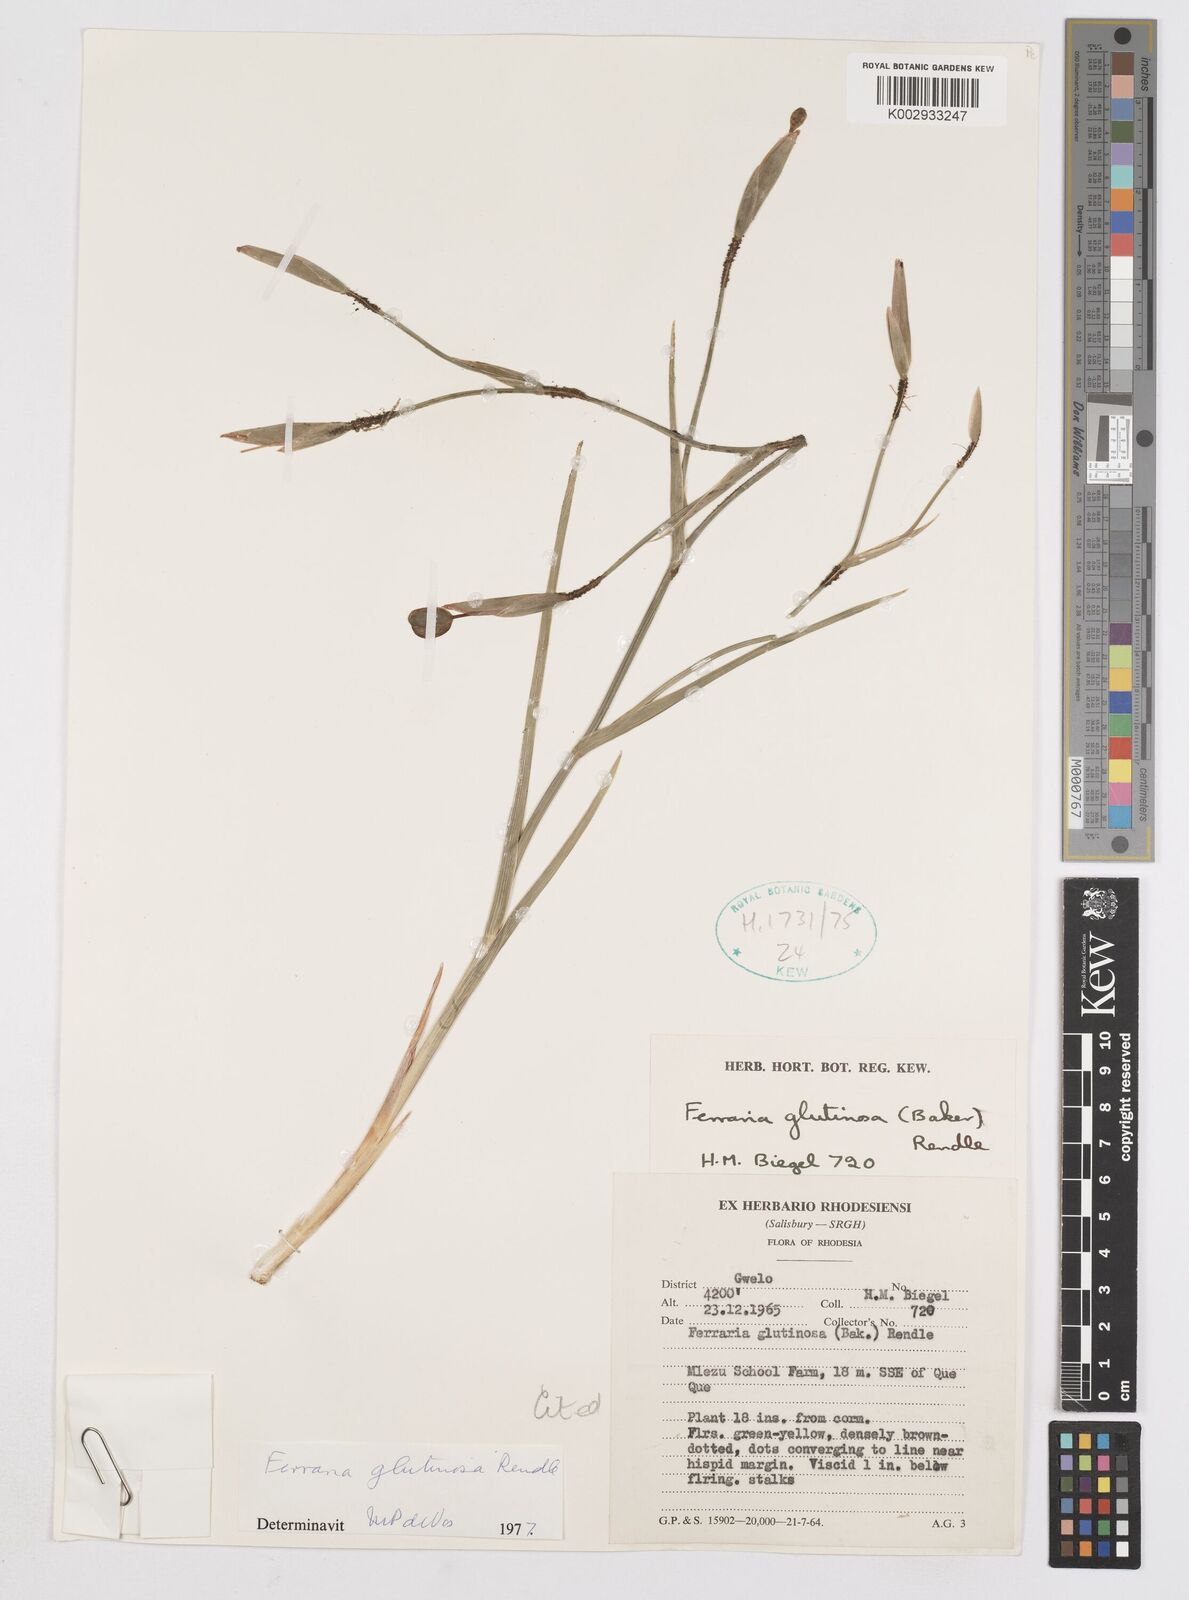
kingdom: Plantae
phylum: Tracheophyta
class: Liliopsida
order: Asparagales
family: Iridaceae
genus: Ferraria
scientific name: Ferraria glutinosa
